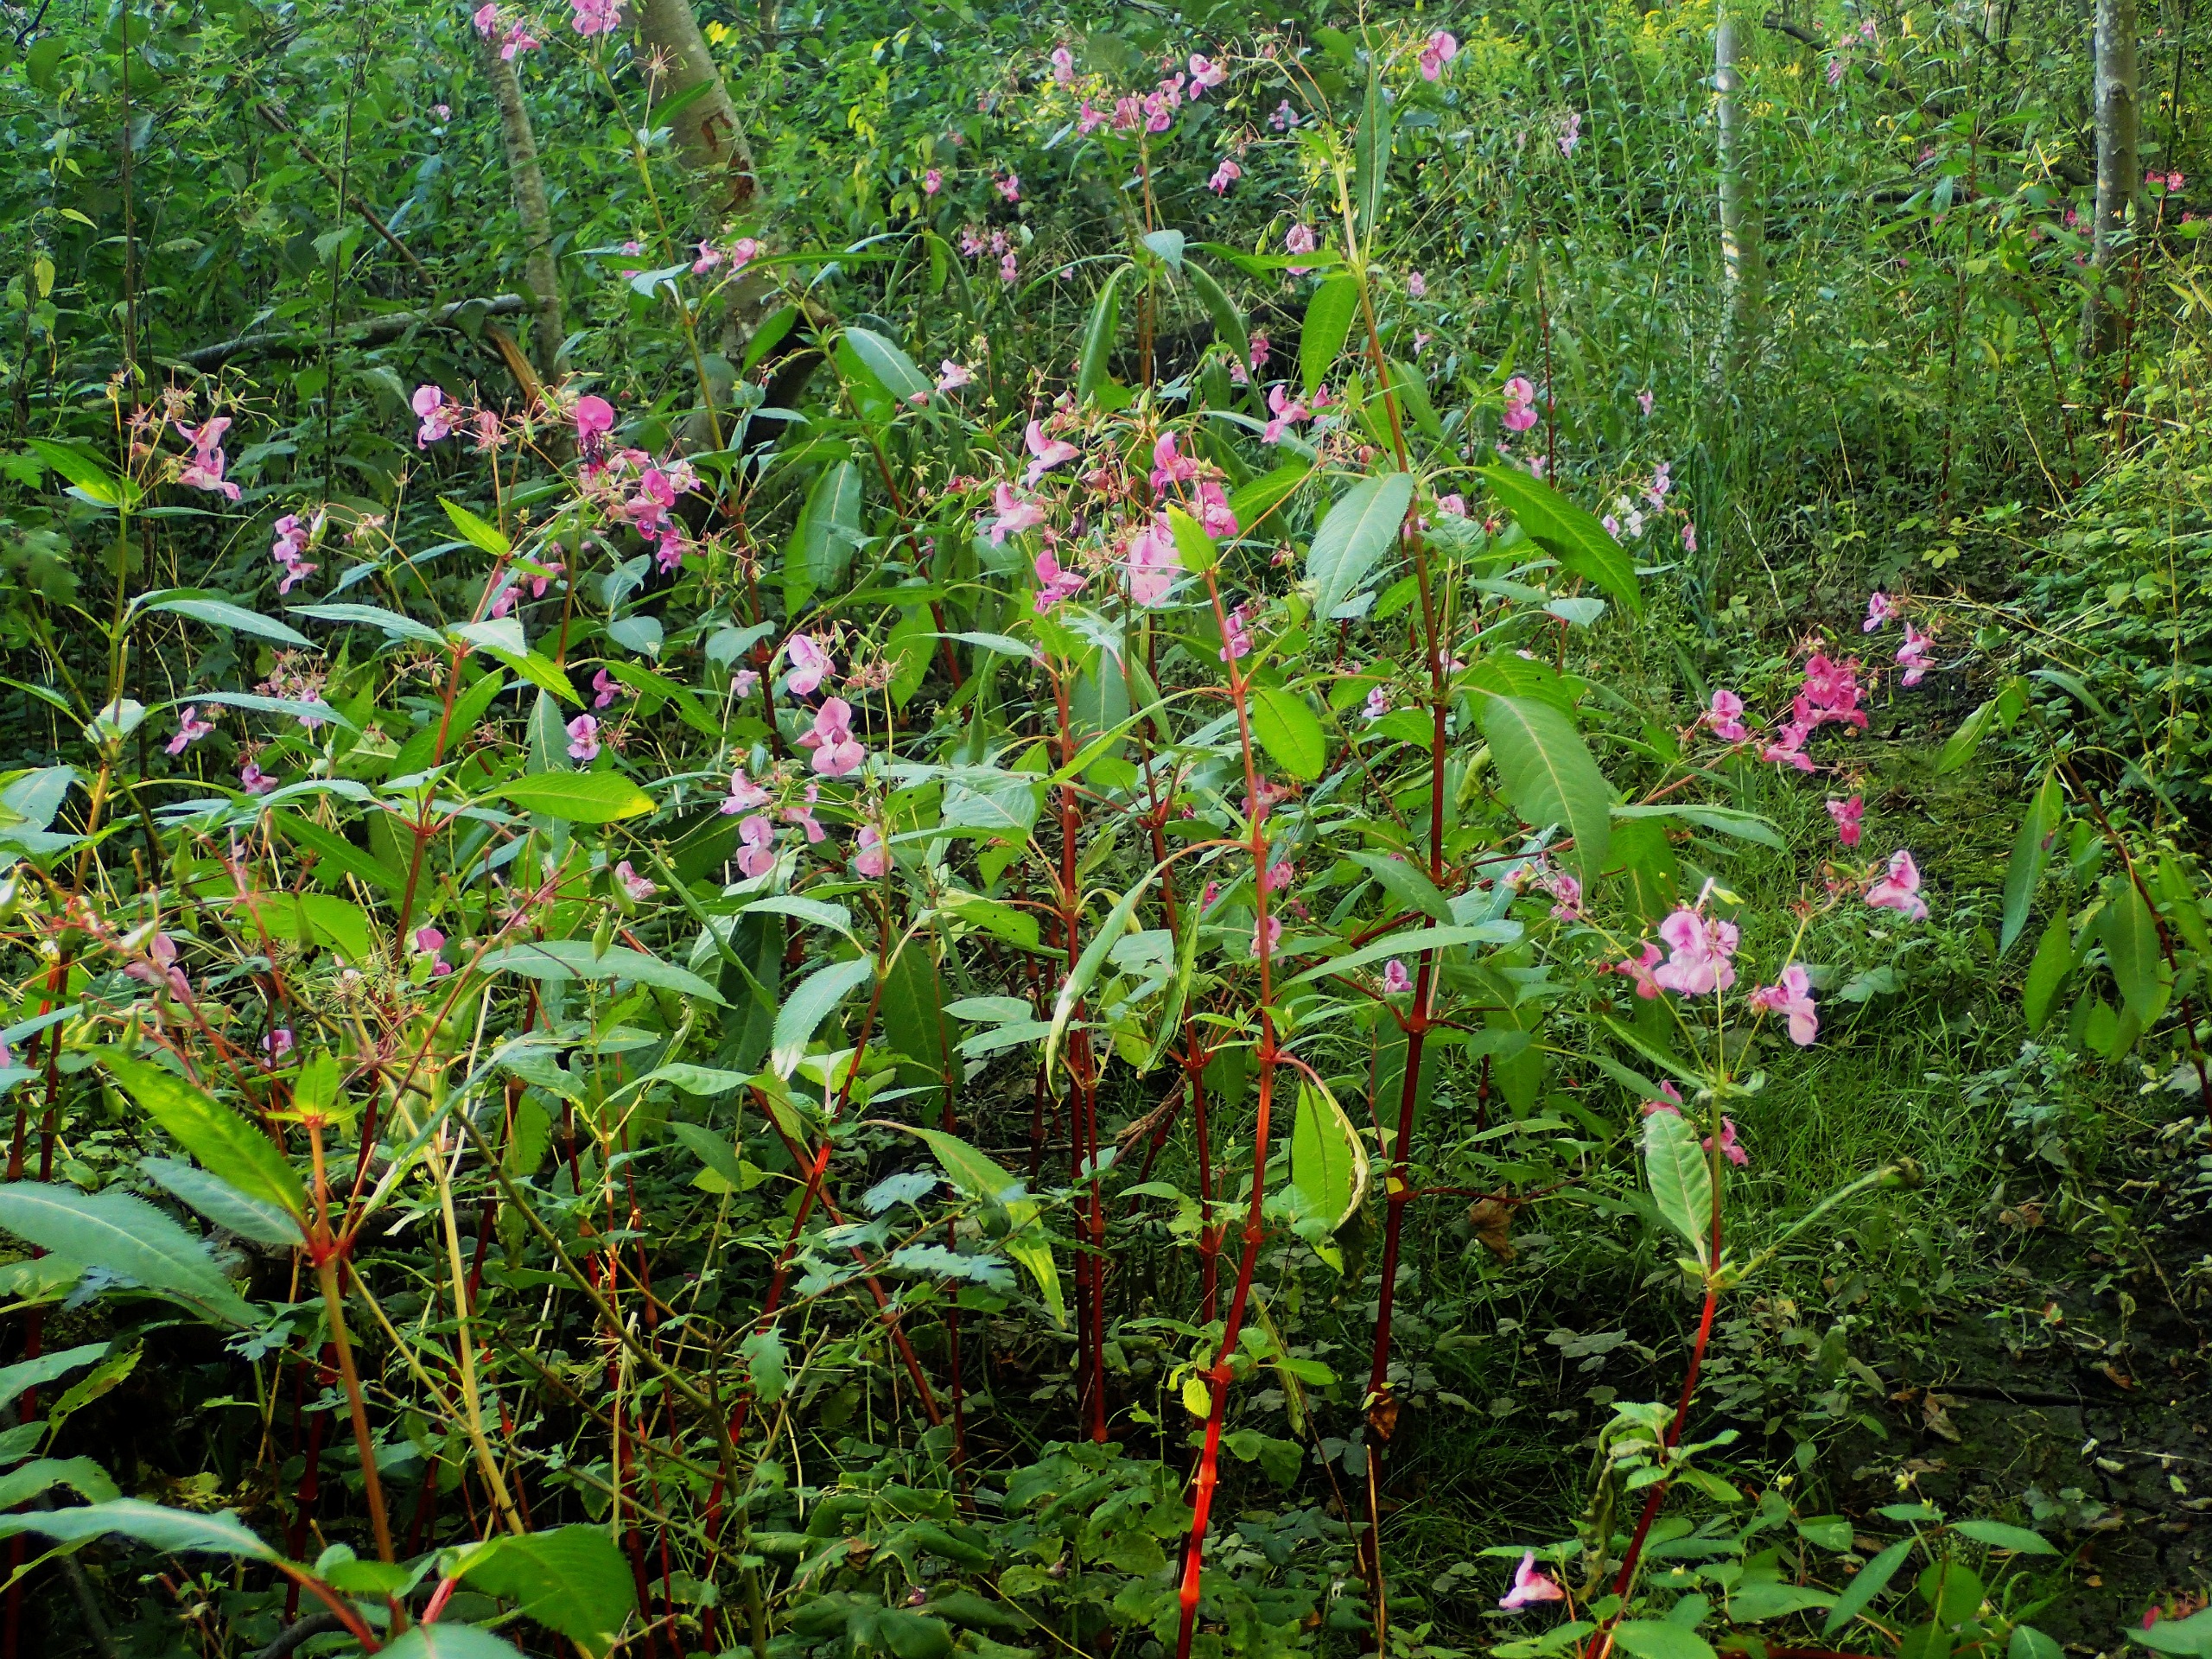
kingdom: Plantae
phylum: Tracheophyta
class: Magnoliopsida
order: Ericales
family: Balsaminaceae
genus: Impatiens
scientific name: Impatiens glandulifera
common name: Kæmpe-balsamin
